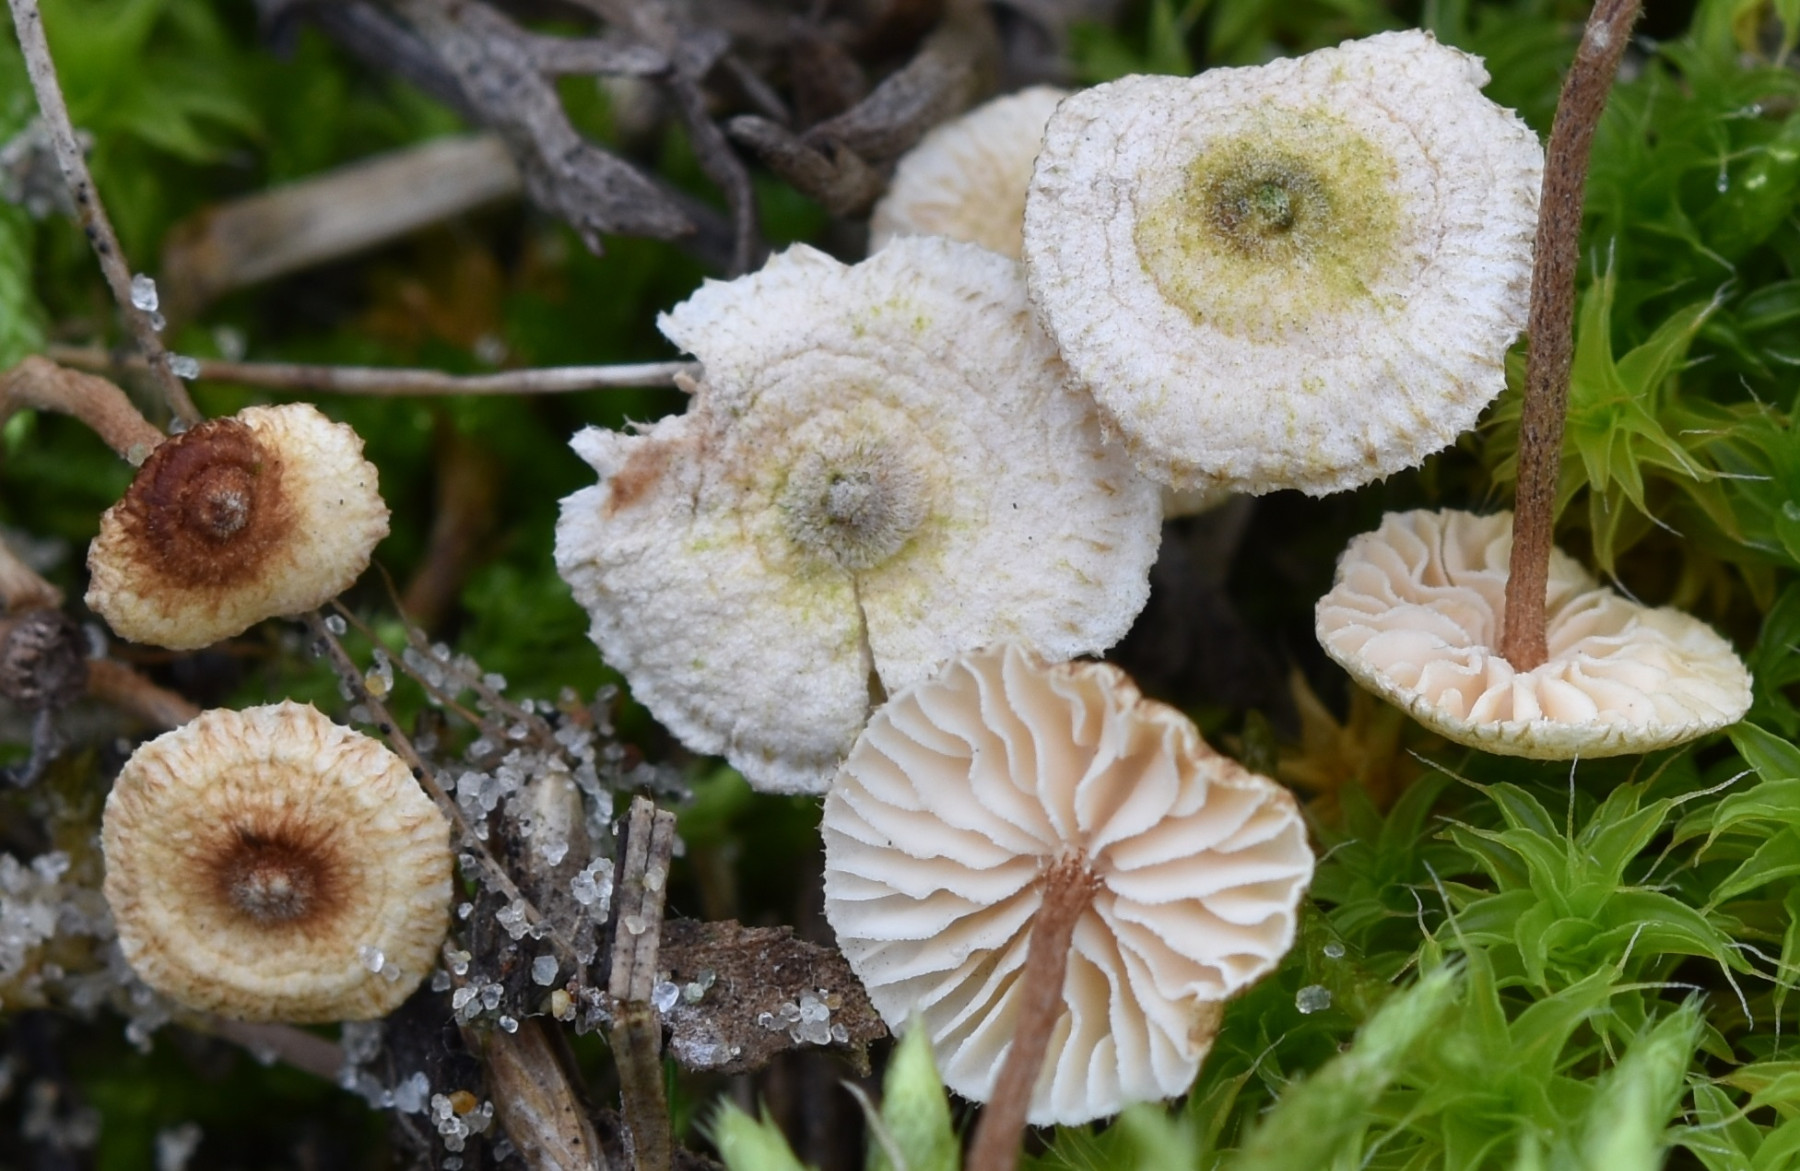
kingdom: Fungi
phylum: Basidiomycota
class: Agaricomycetes
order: Agaricales
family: Marasmiaceae
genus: Crinipellis
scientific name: Crinipellis scabella
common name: børstefod
